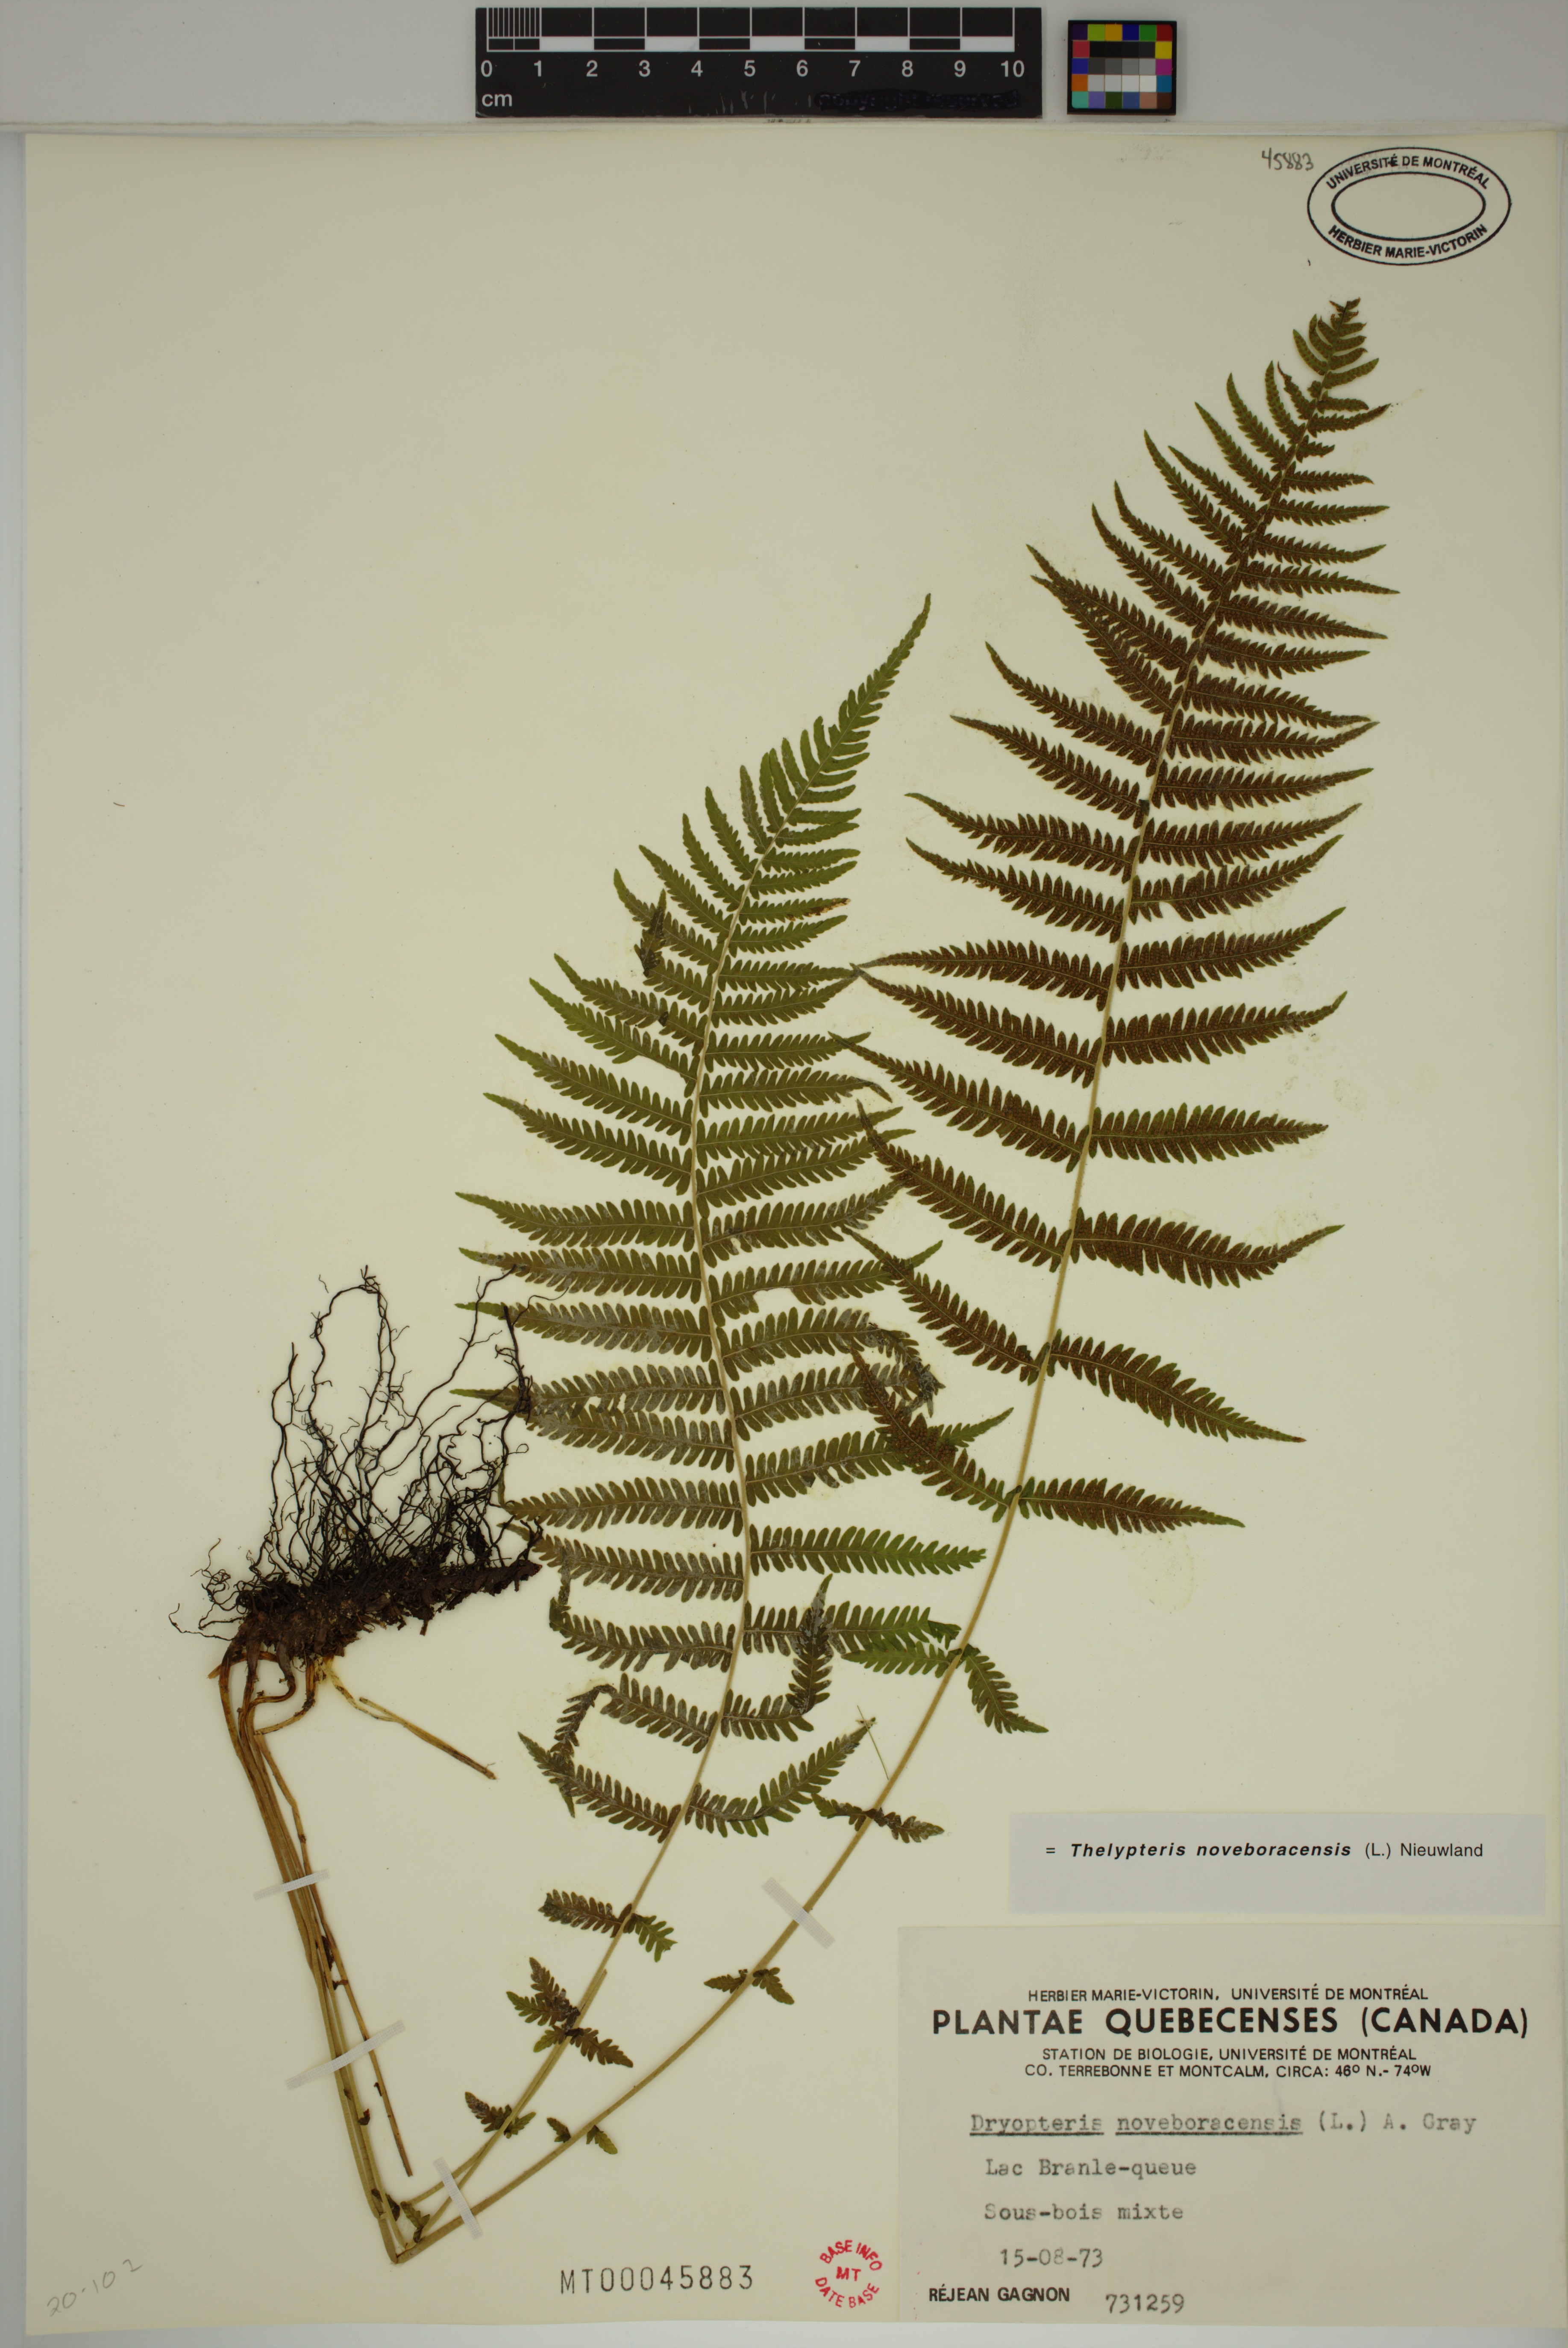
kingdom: Plantae
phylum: Tracheophyta
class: Polypodiopsida
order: Polypodiales
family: Thelypteridaceae
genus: Amauropelta
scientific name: Amauropelta noveboracensis
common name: New york fern
